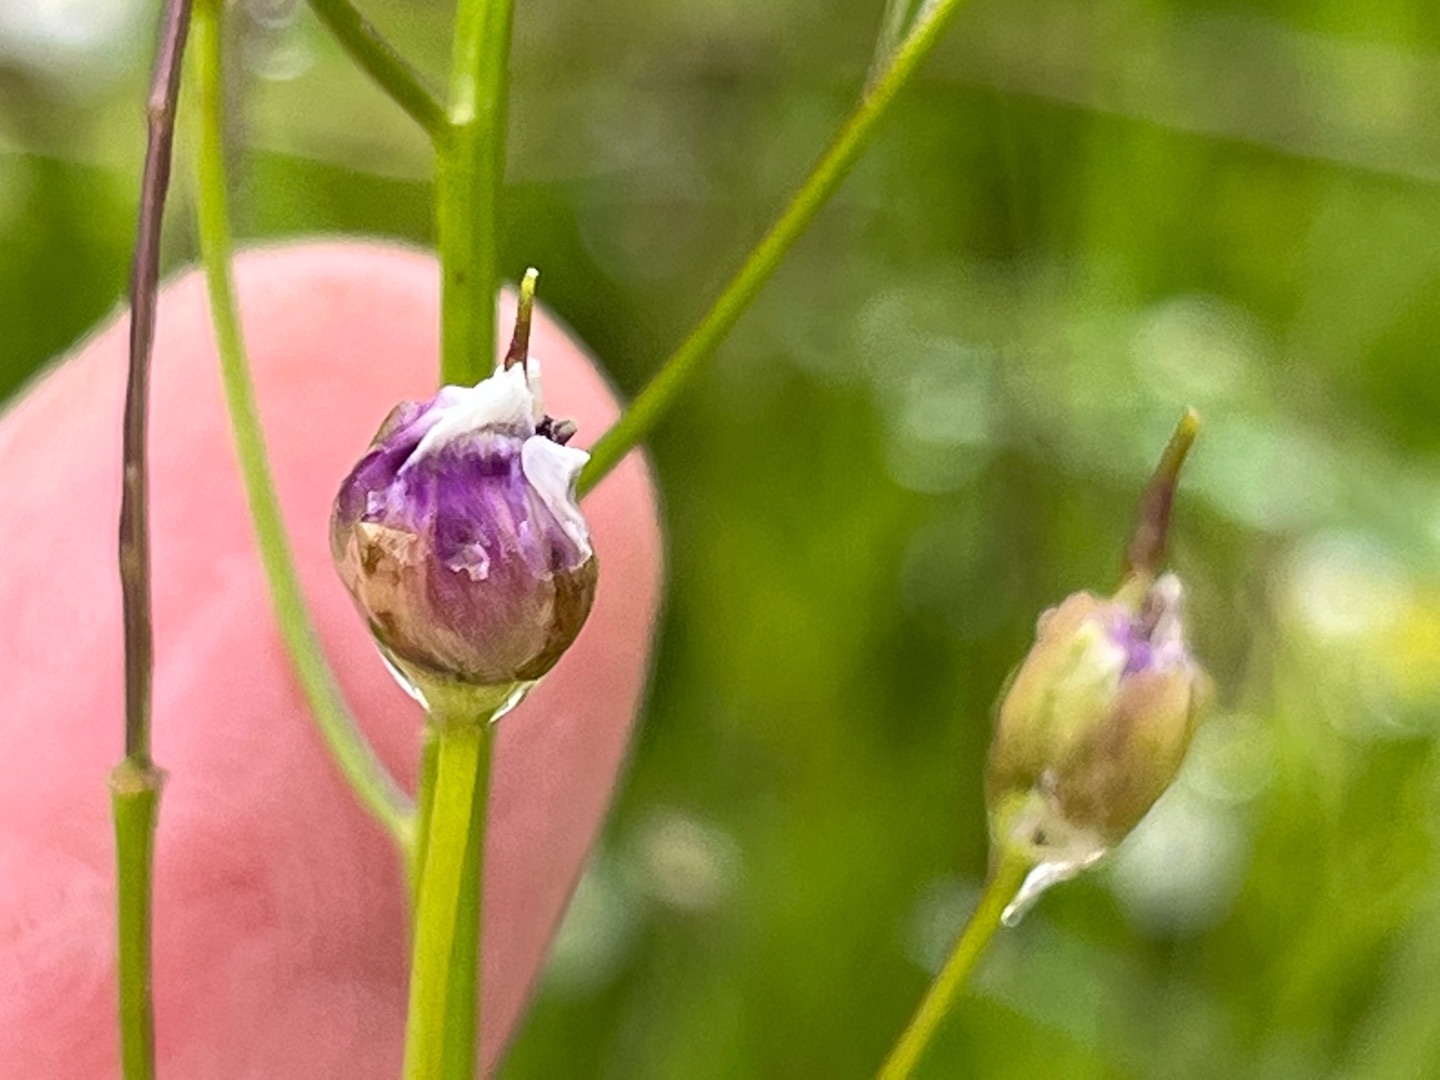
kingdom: Animalia
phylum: Arthropoda
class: Insecta
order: Diptera
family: Cecidomyiidae
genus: Dasineura
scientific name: Dasineura cardaminis
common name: Vandkarsegalmyg
